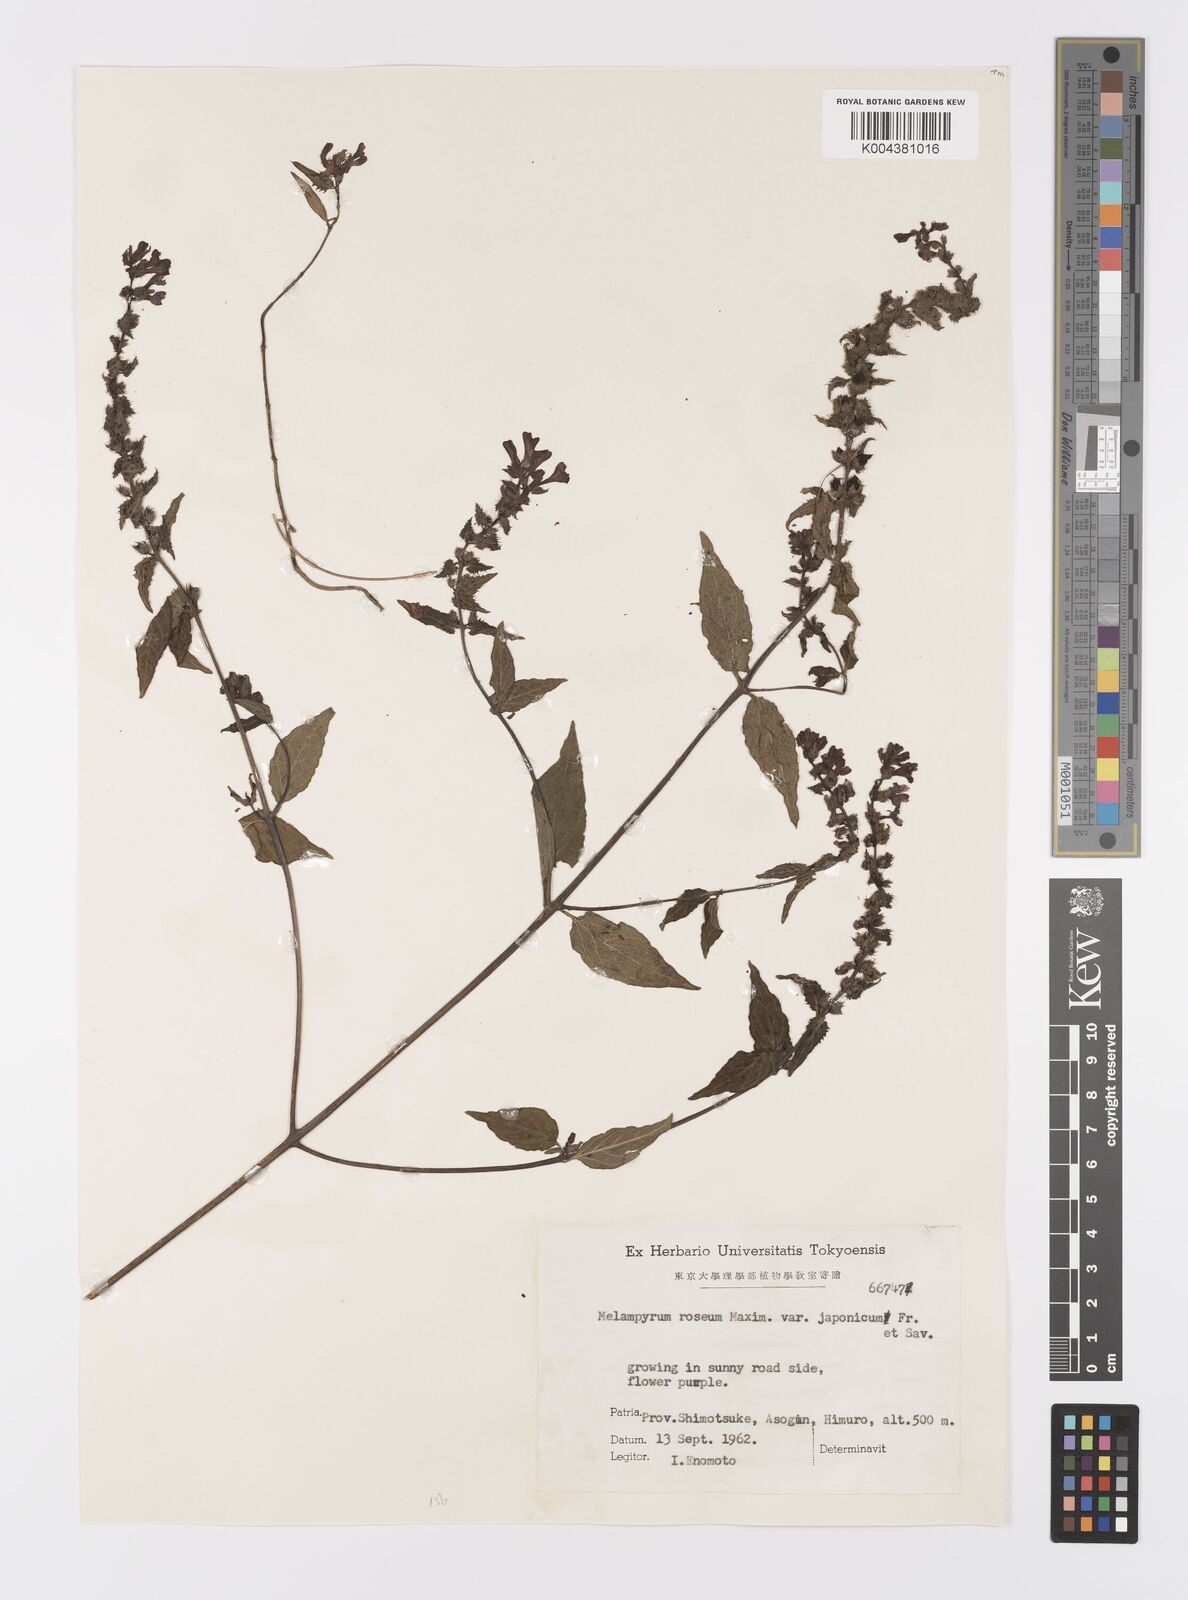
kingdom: Plantae
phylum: Tracheophyta
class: Magnoliopsida
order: Lamiales
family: Orobanchaceae
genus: Melampyrum
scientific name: Melampyrum roseum
